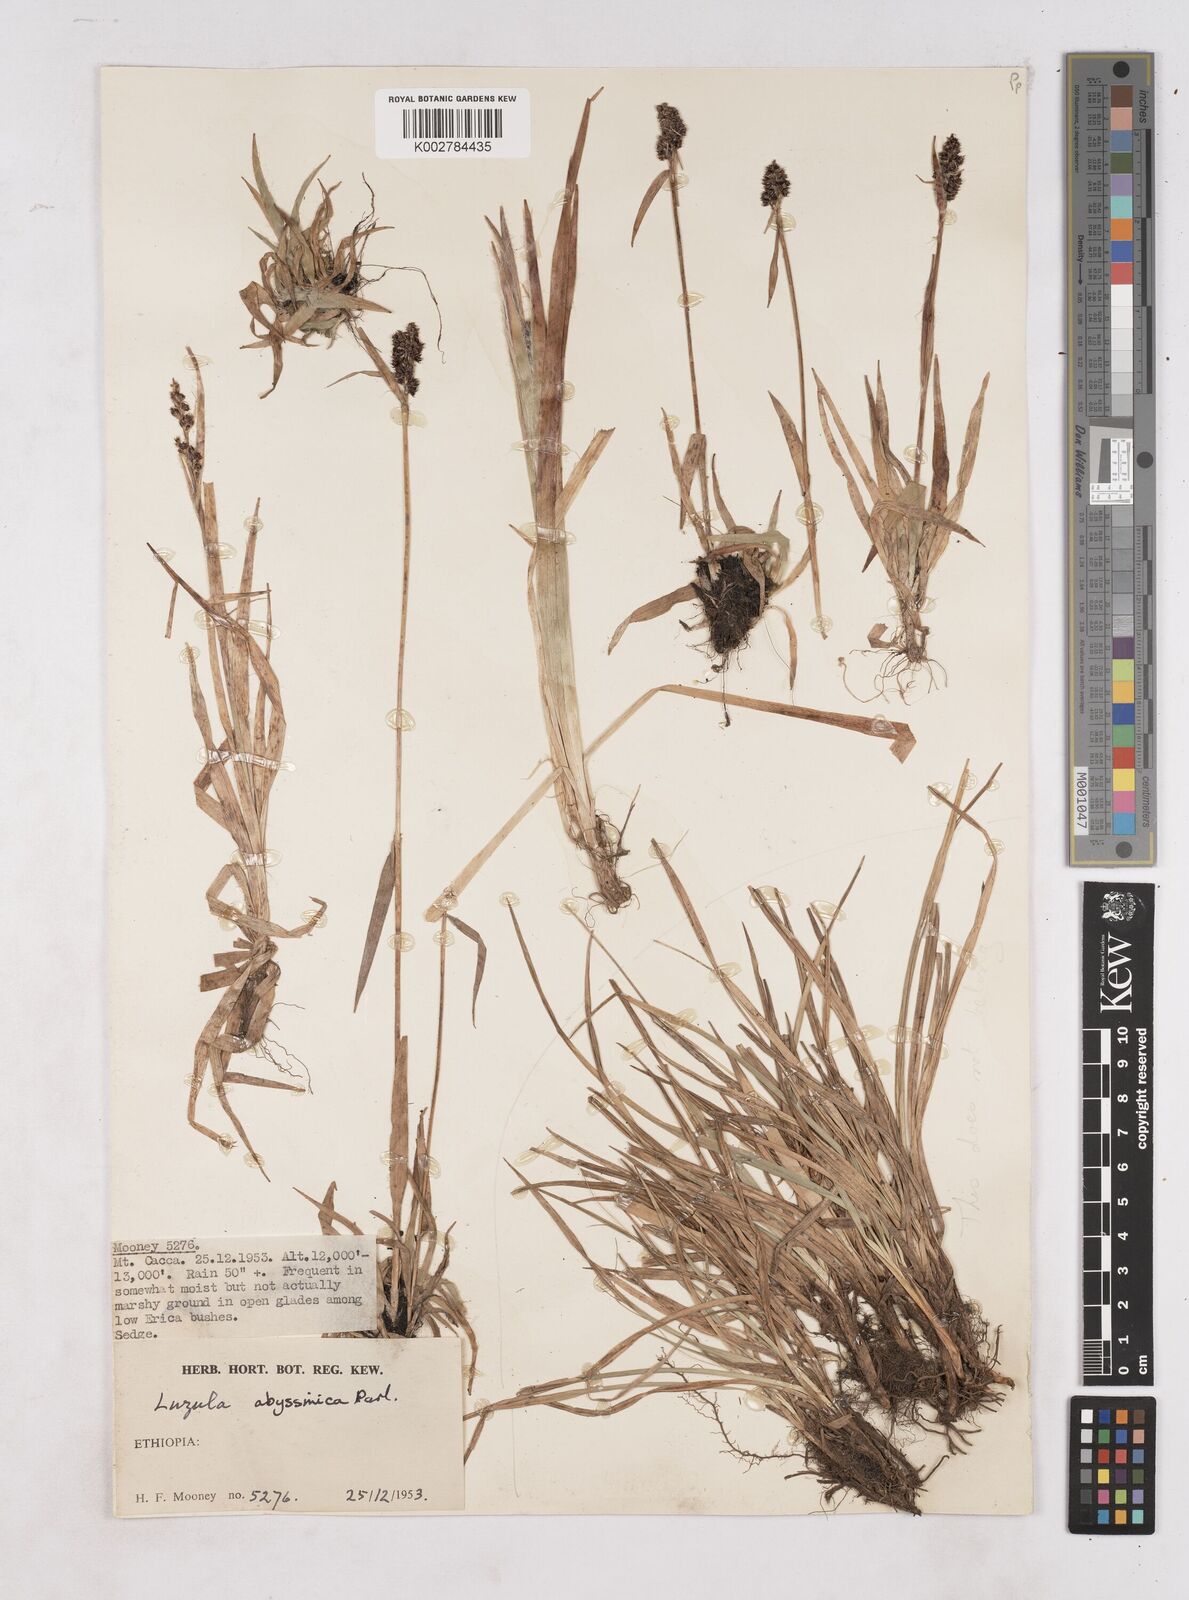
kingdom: Plantae
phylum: Tracheophyta
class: Liliopsida
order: Poales
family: Juncaceae
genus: Luzula
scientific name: Luzula abyssinica
